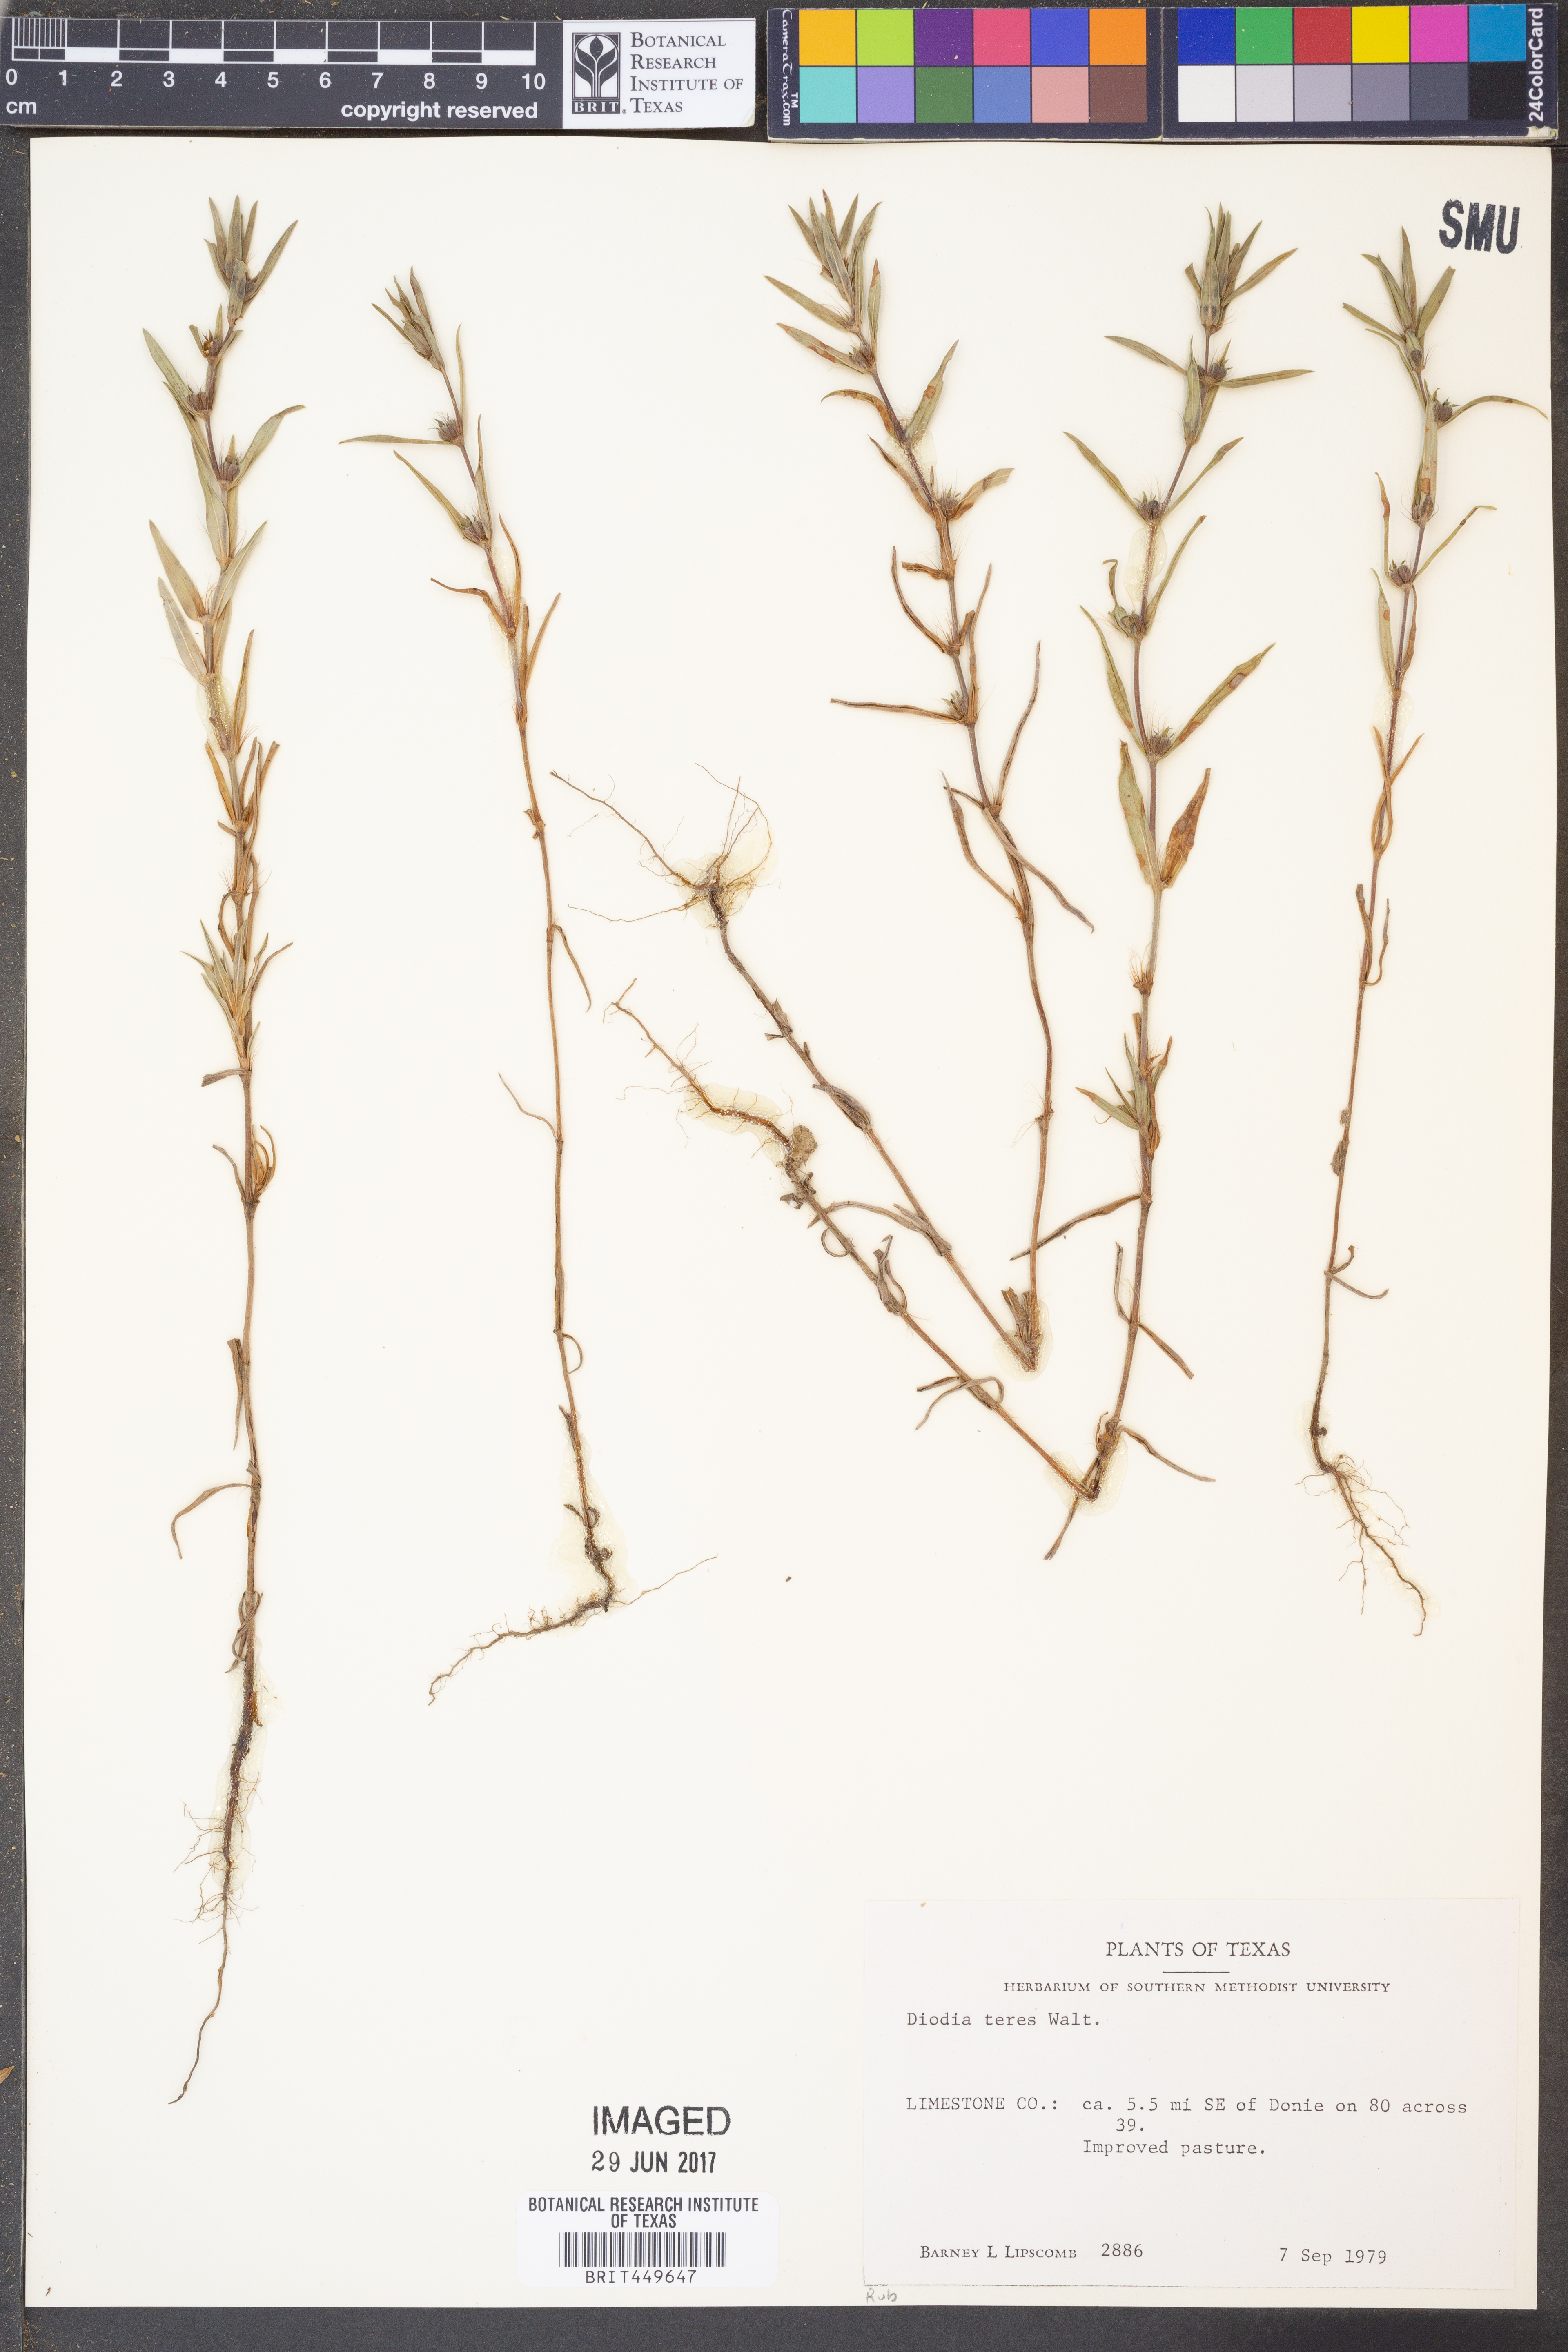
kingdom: Plantae
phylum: Tracheophyta
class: Magnoliopsida
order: Gentianales
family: Rubiaceae
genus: Hexasepalum
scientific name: Hexasepalum teres
